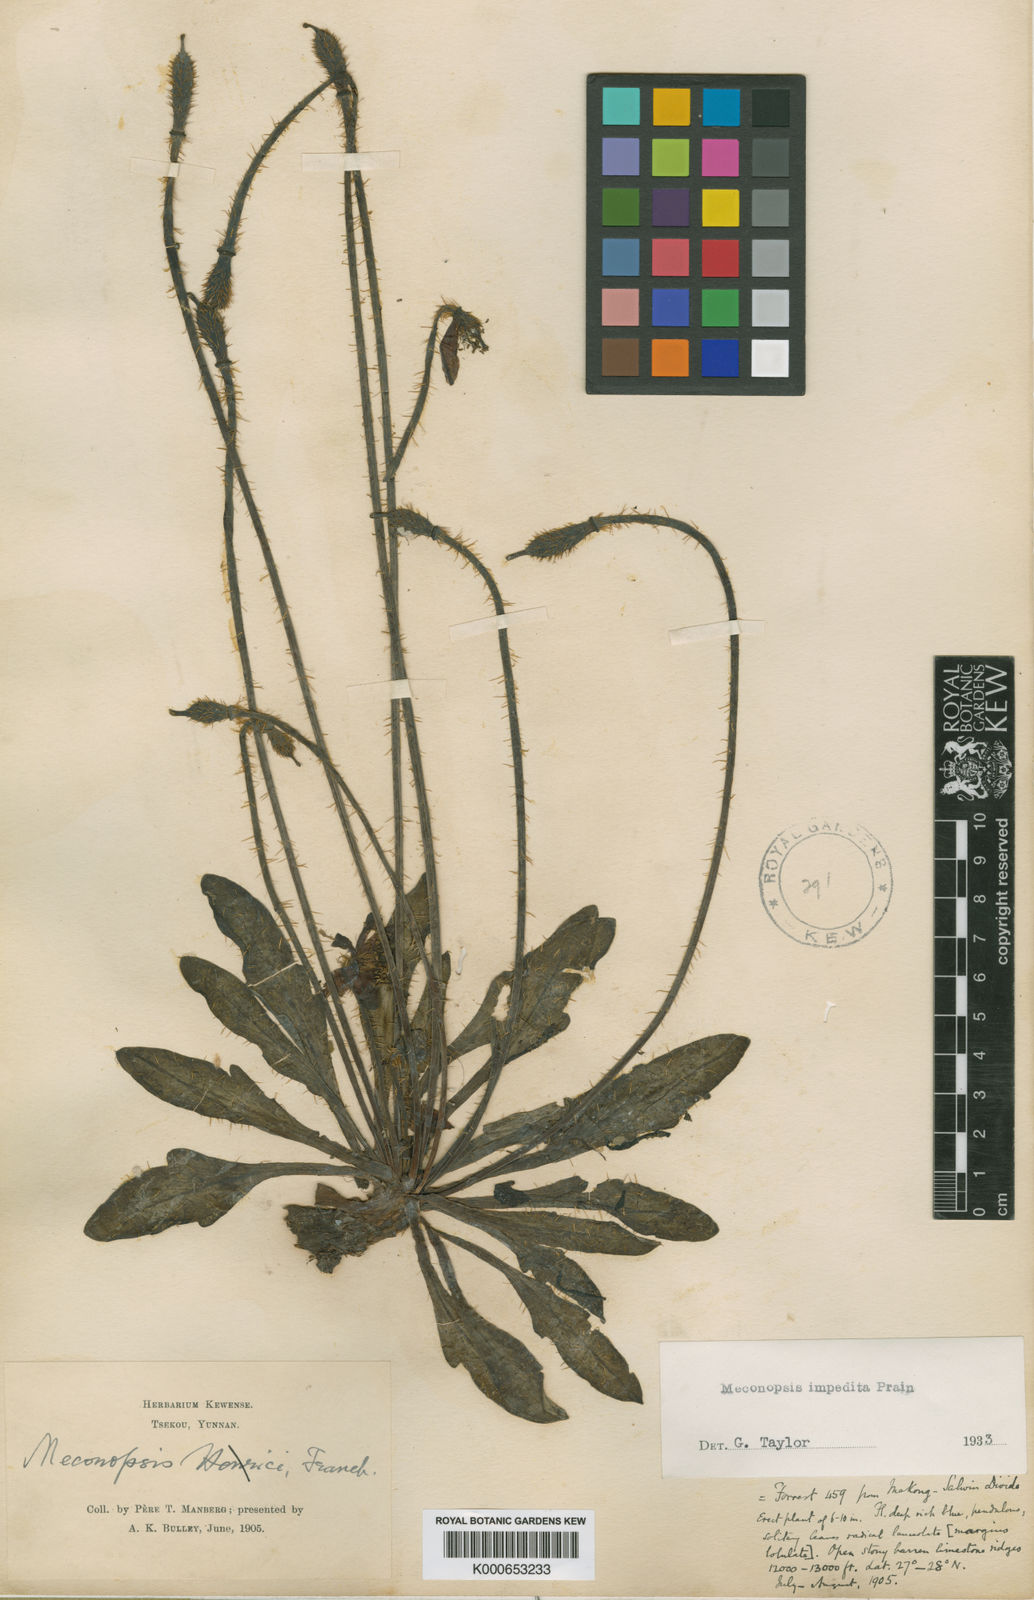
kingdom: Plantae
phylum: Tracheophyta
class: Magnoliopsida
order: Ranunculales
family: Papaveraceae
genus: Meconopsis
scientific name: Meconopsis impedita
